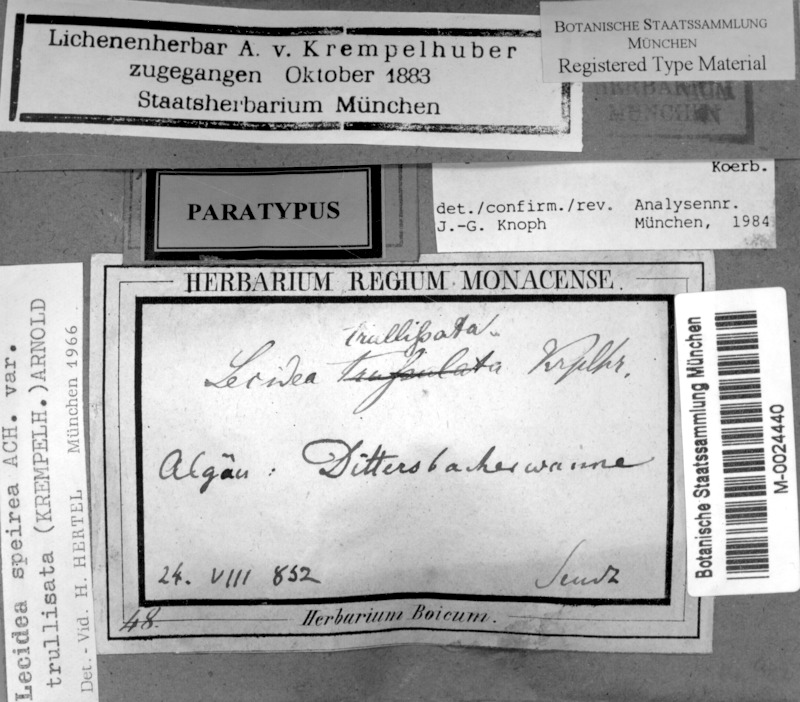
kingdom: Fungi
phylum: Ascomycota
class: Lecanoromycetes
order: Lecideales
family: Lecideaceae
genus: Porpidia
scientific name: Porpidia trullisata
